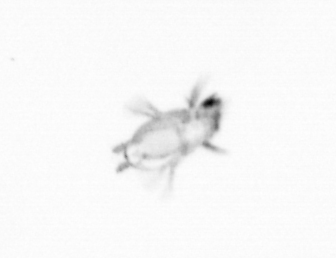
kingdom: Animalia
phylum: Annelida
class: Polychaeta
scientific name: Polychaeta
